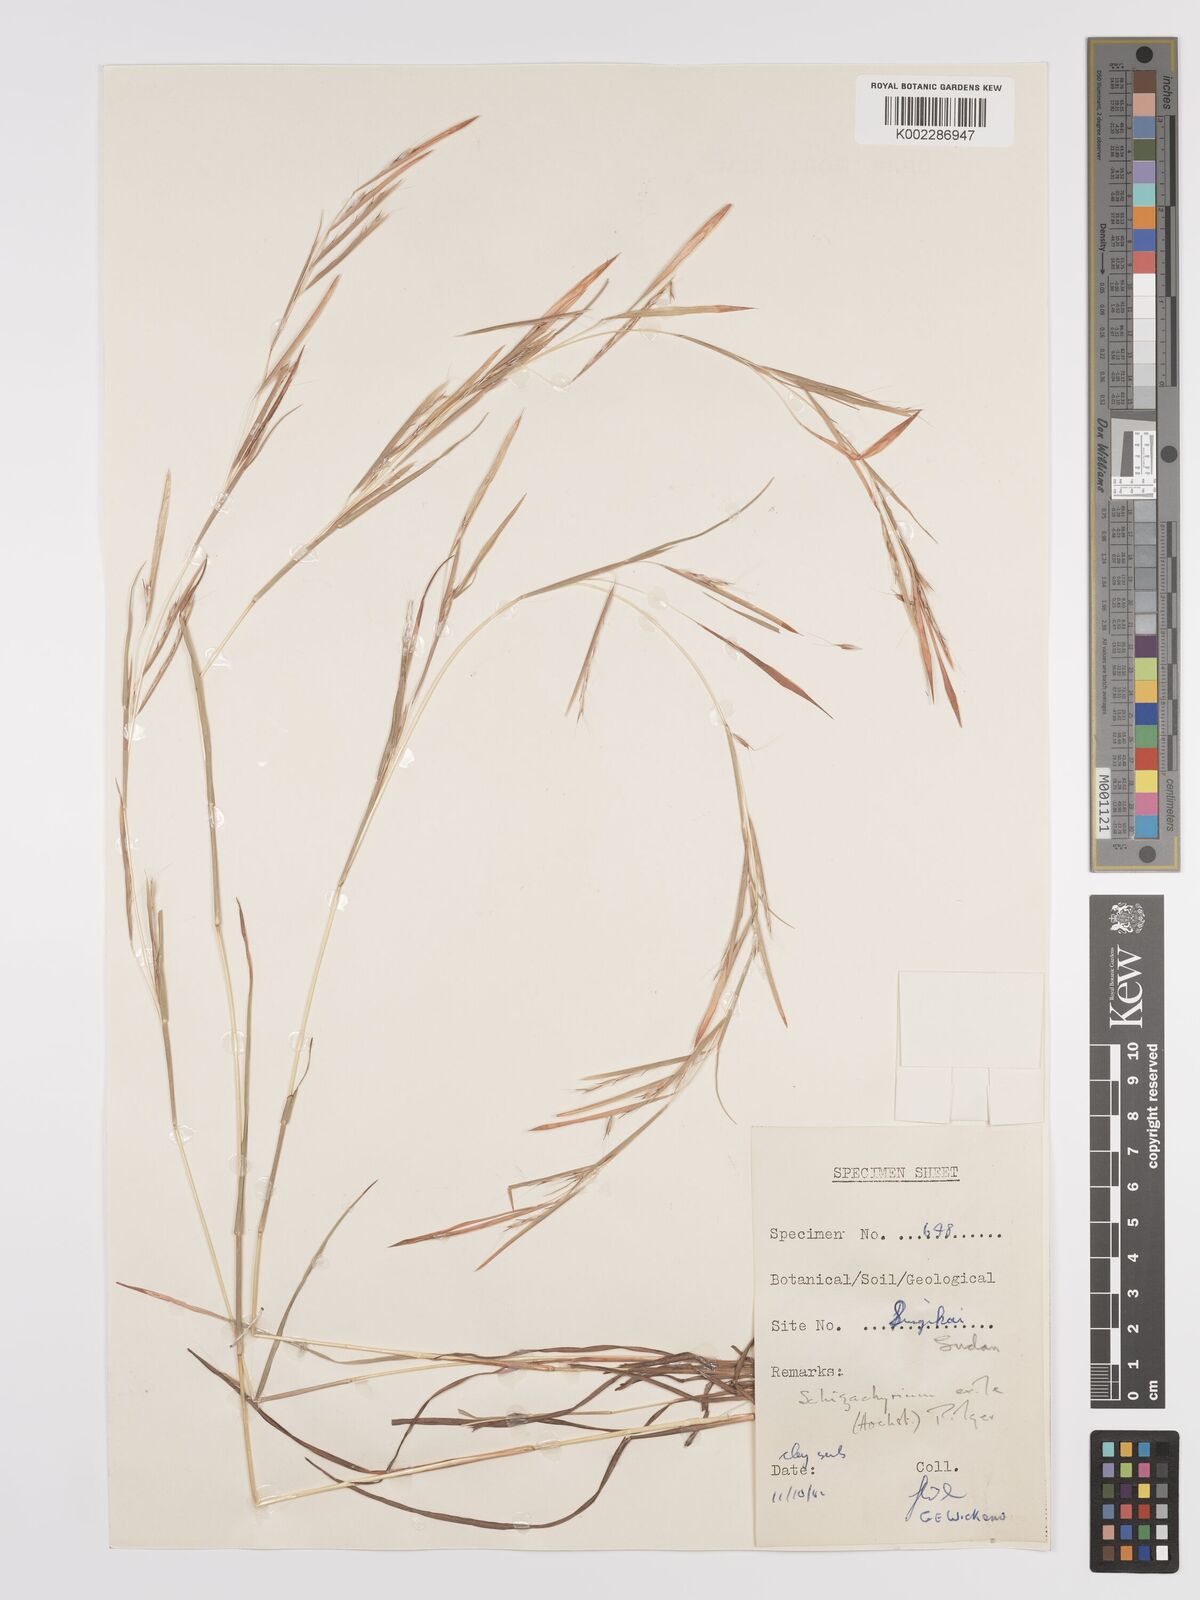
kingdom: Plantae
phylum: Tracheophyta
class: Liliopsida
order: Poales
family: Poaceae
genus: Schizachyrium
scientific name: Schizachyrium exile
